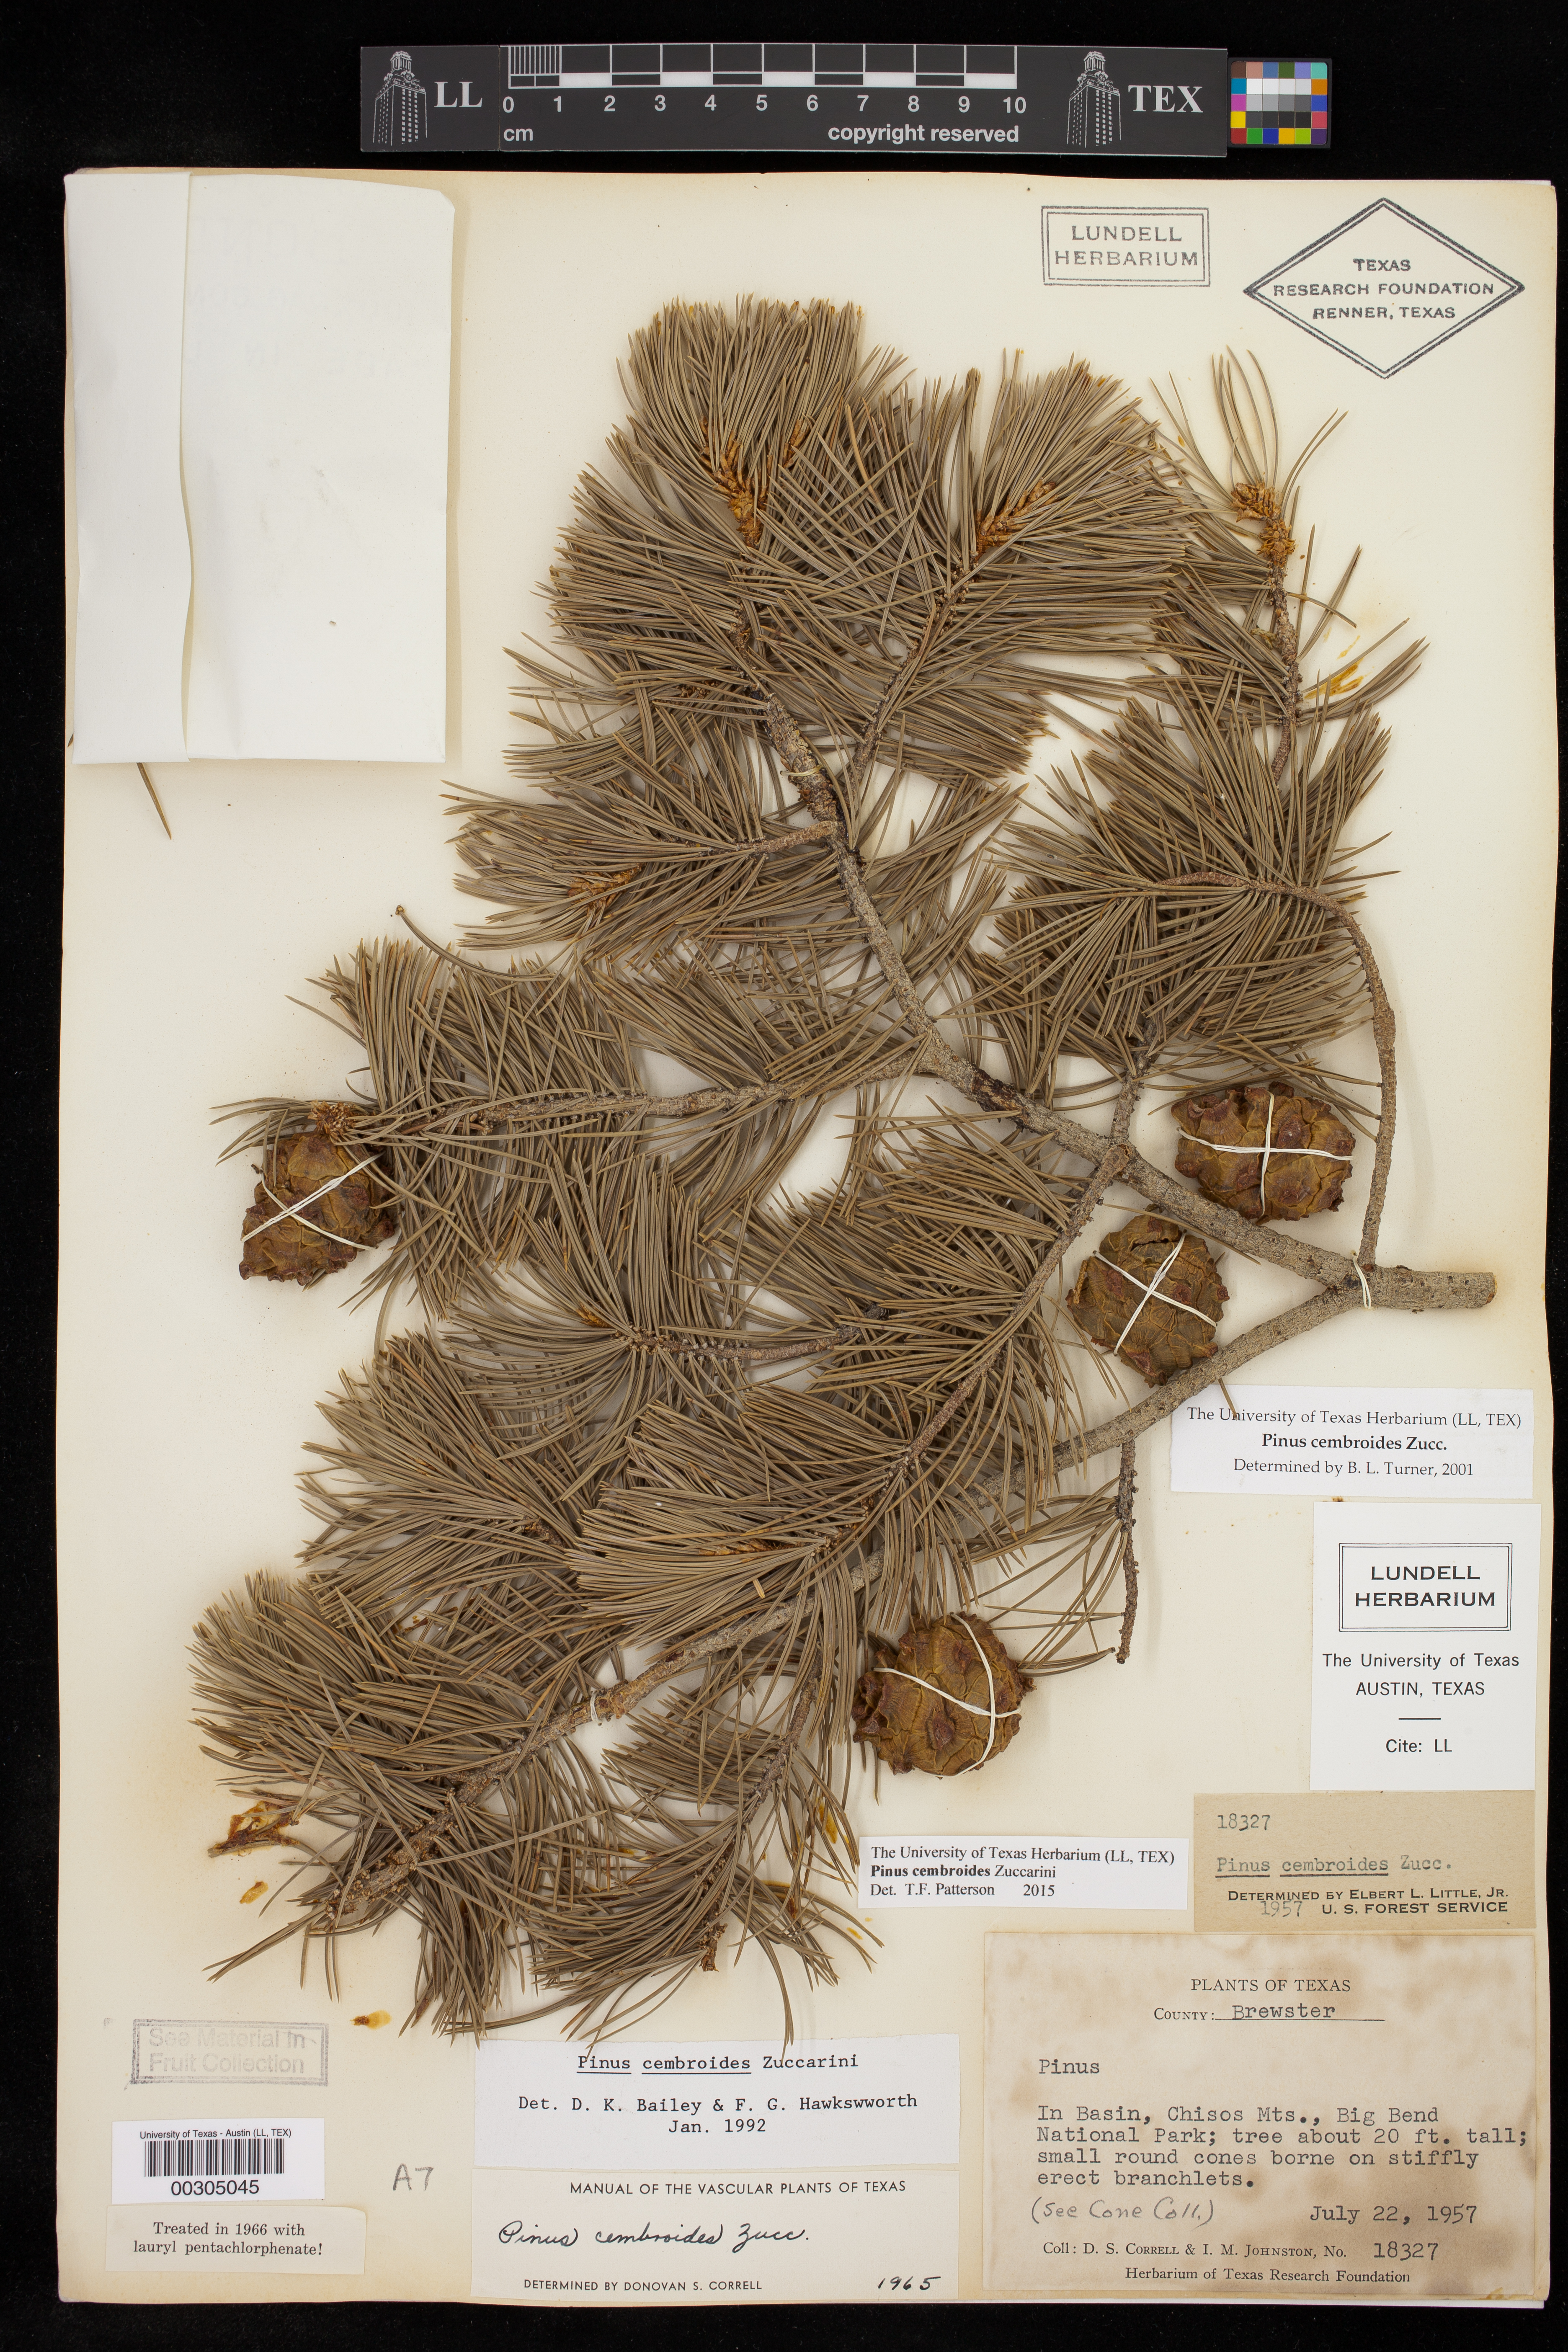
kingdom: Plantae
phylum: Tracheophyta
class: Pinopsida
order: Pinales
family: Pinaceae
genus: Pinus
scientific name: Pinus cembroides
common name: Mexican nut pine
